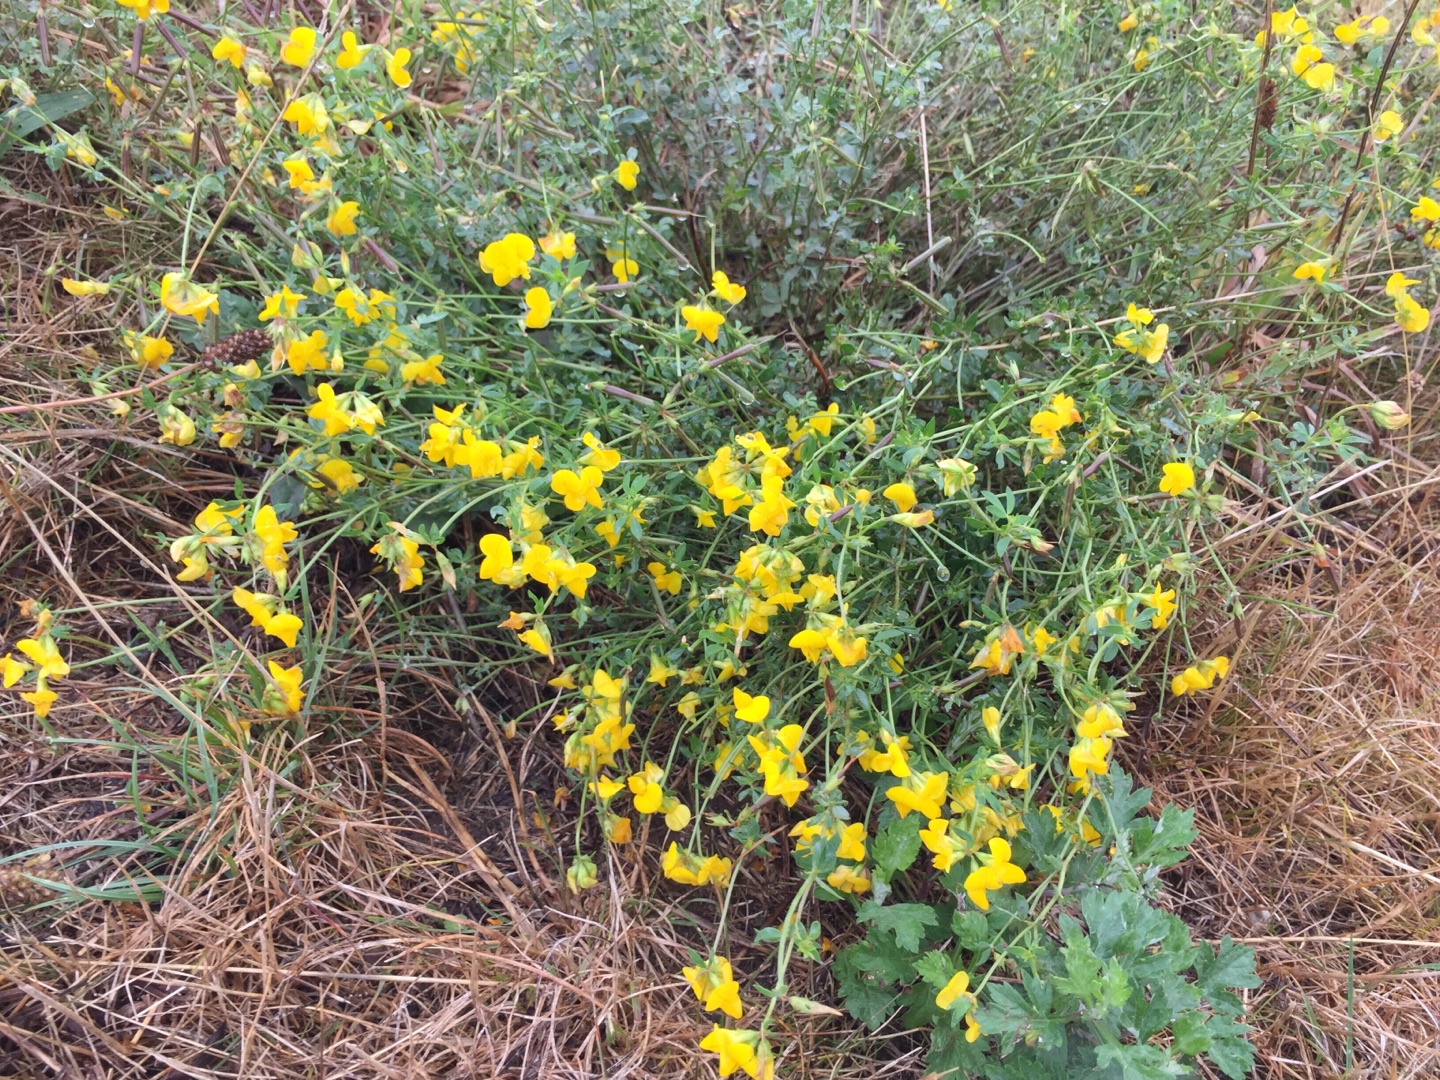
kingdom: Plantae
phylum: Tracheophyta
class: Magnoliopsida
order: Fabales
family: Fabaceae
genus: Lotus
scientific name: Lotus corniculatus
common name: Almindelig kællingetand
